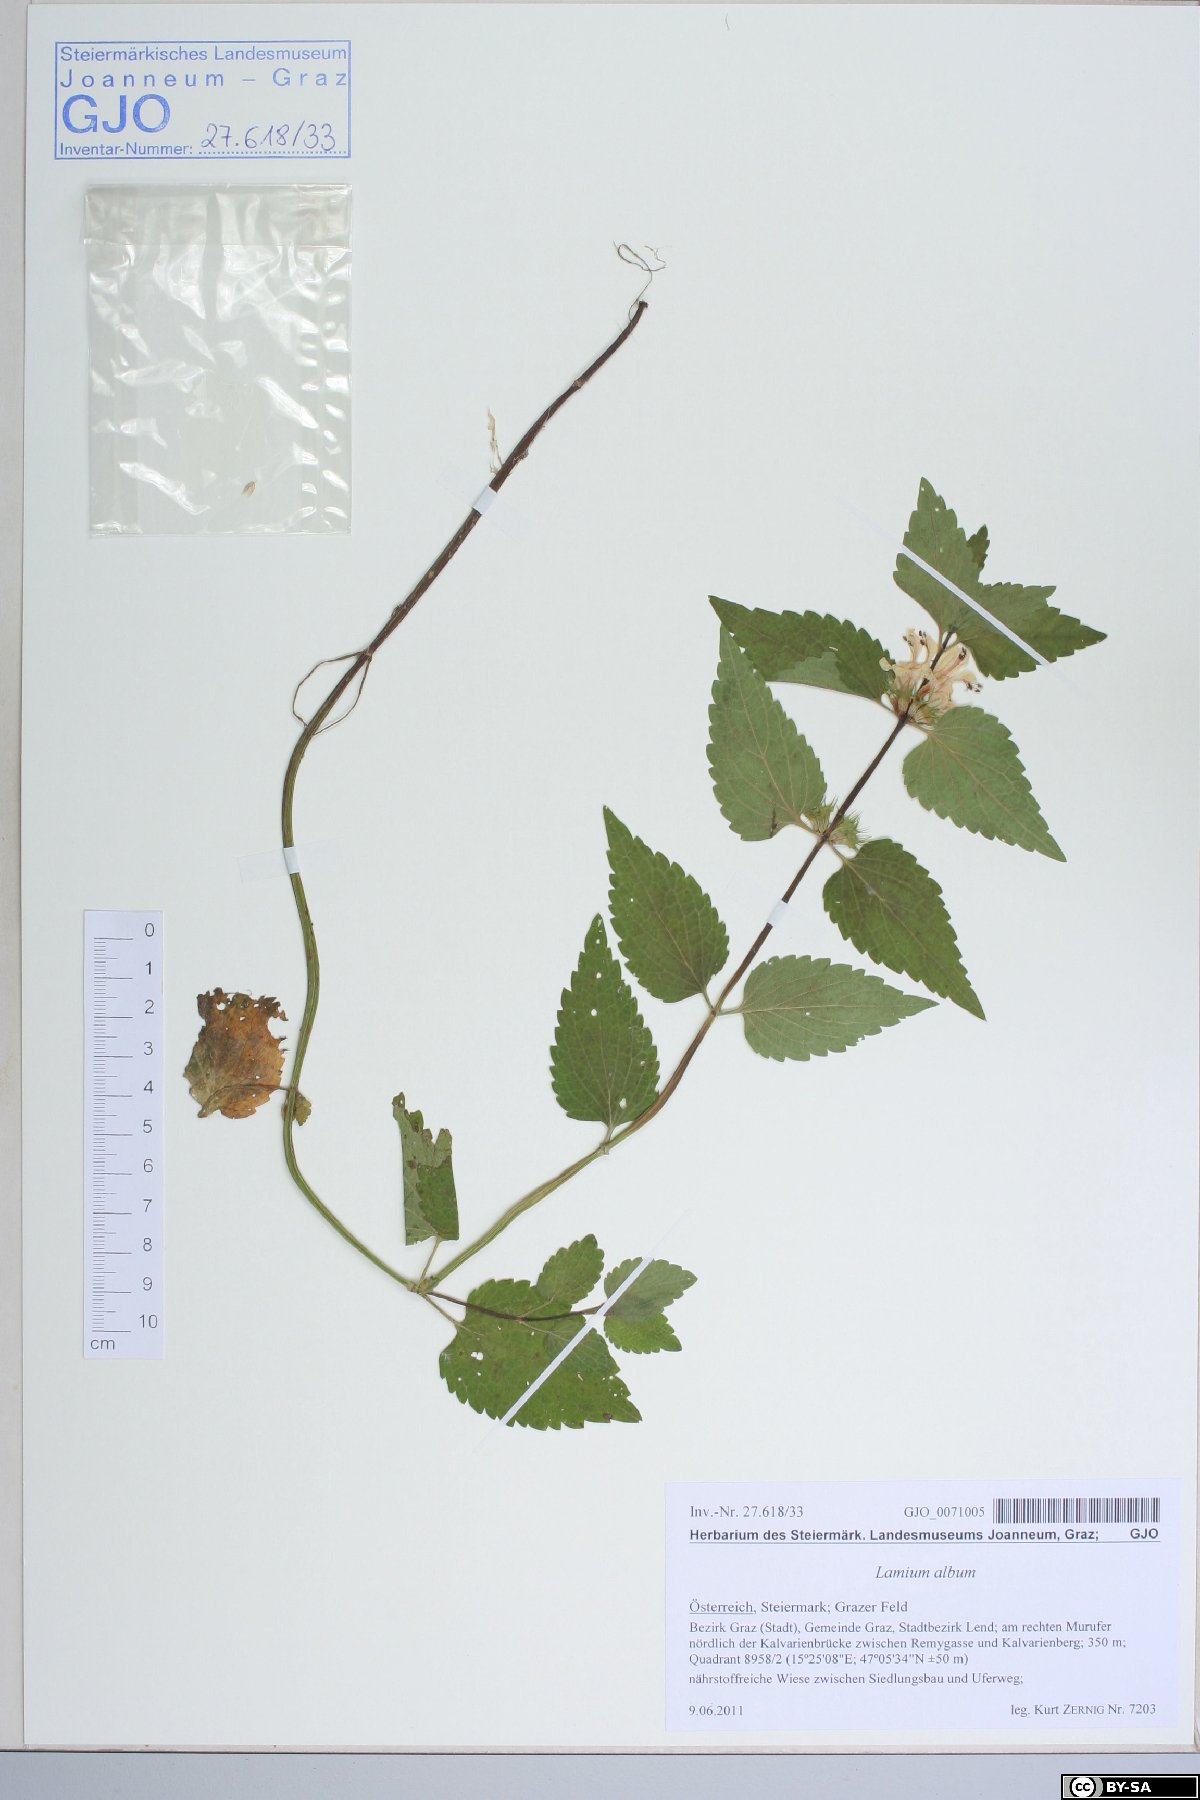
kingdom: Plantae
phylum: Tracheophyta
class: Magnoliopsida
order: Lamiales
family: Lamiaceae
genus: Lamium
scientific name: Lamium album
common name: White dead-nettle
